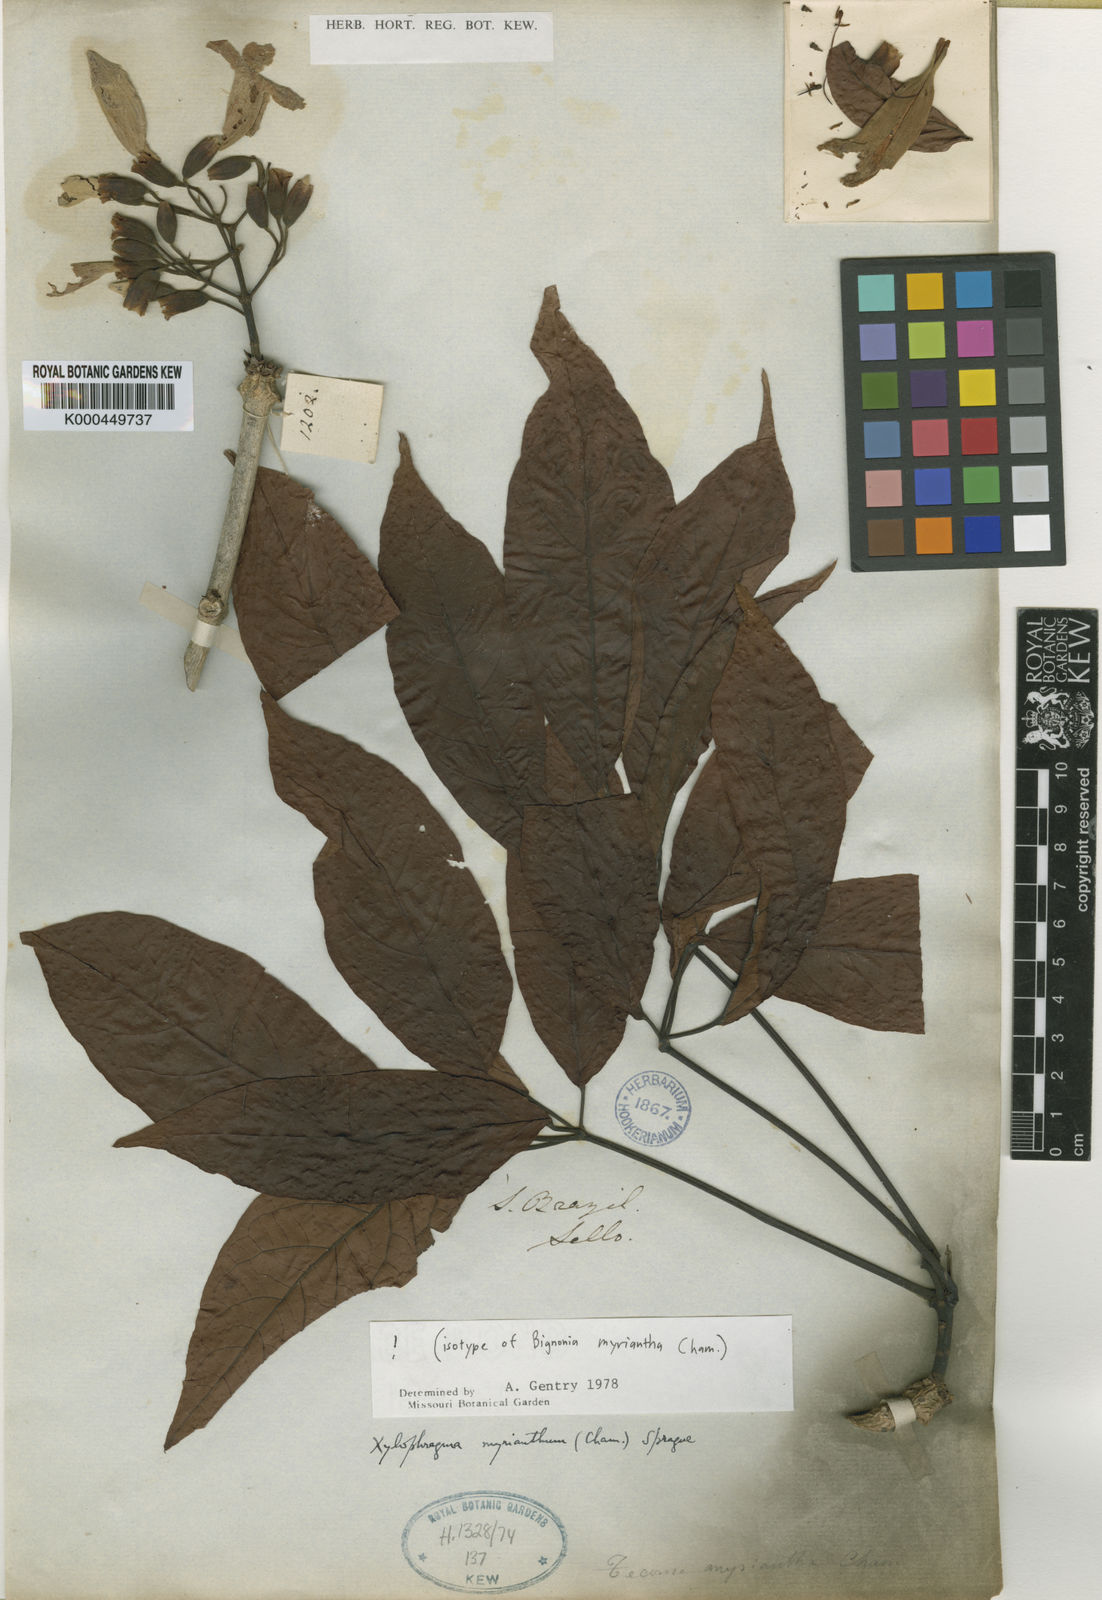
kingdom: Plantae
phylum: Tracheophyta
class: Magnoliopsida
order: Lamiales
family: Bignoniaceae
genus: Xylophragma
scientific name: Xylophragma myrianthum
